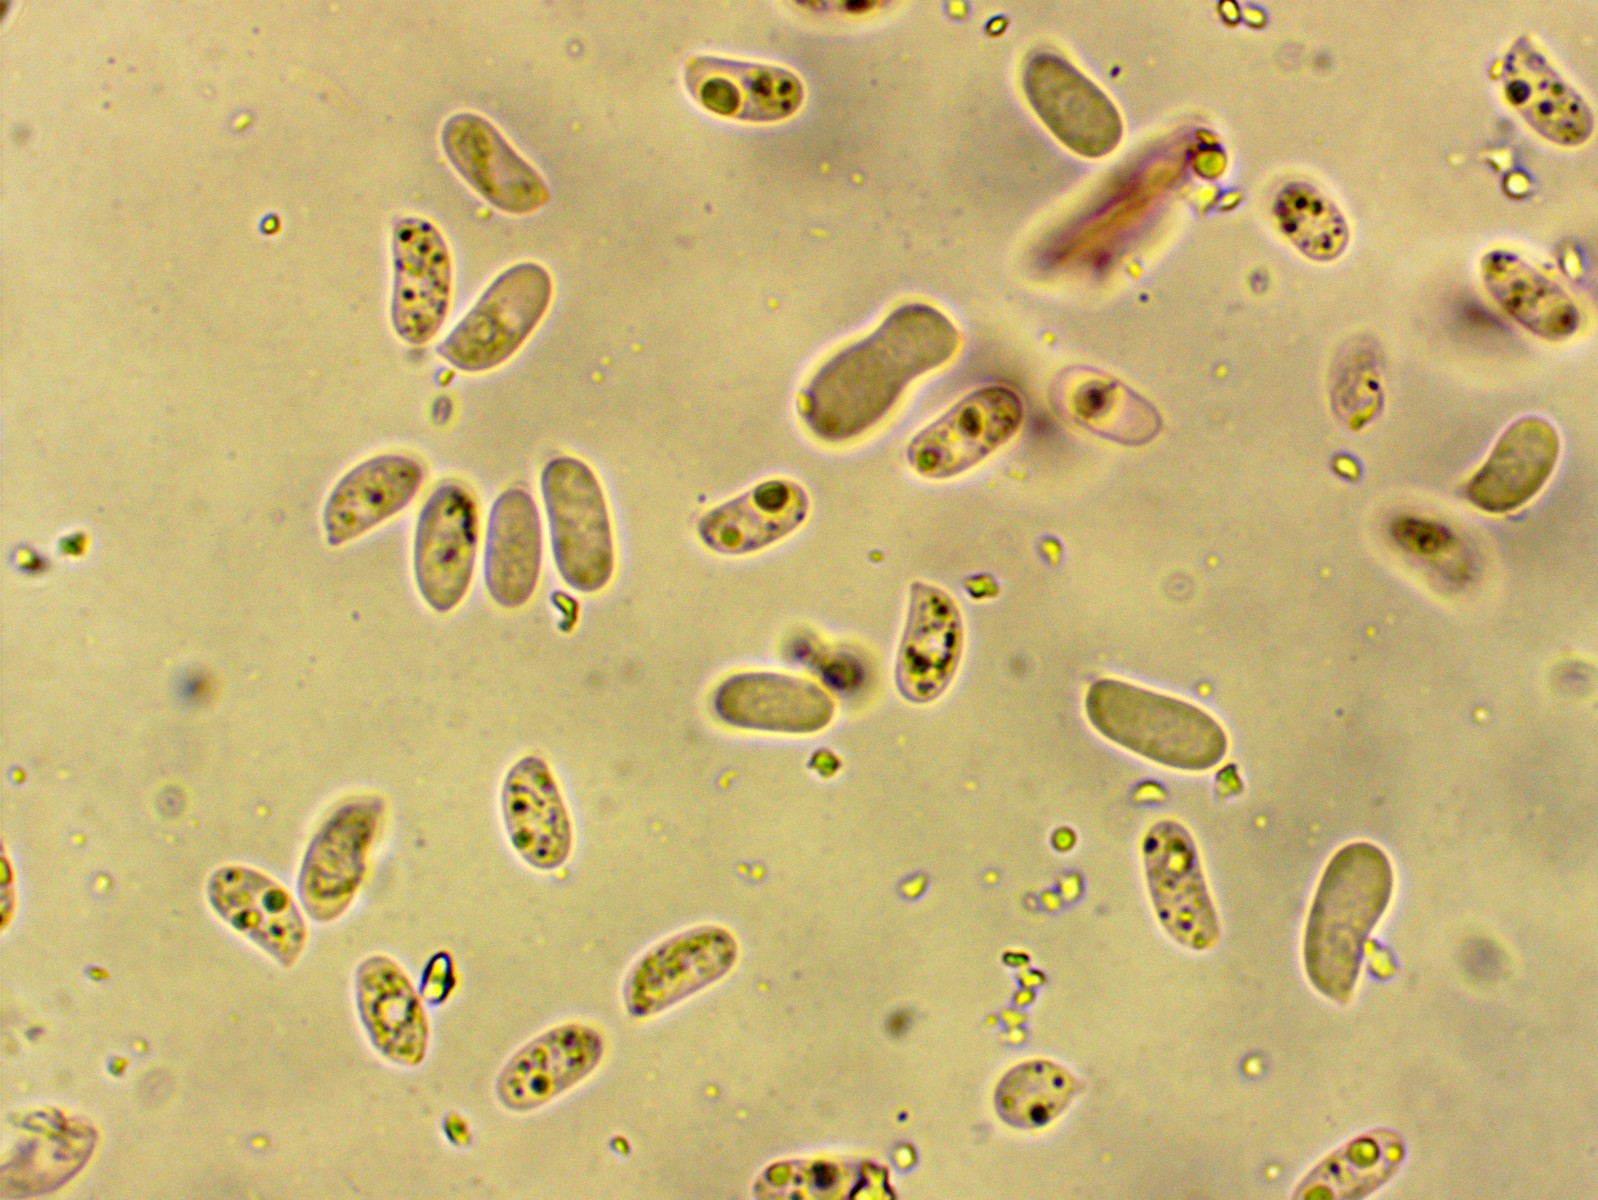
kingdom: Fungi
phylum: Basidiomycota
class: Agaricomycetes
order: Hymenochaetales
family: Rickenellaceae
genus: Peniophorella
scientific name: Peniophorella pubera
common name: dunet kalkskind
